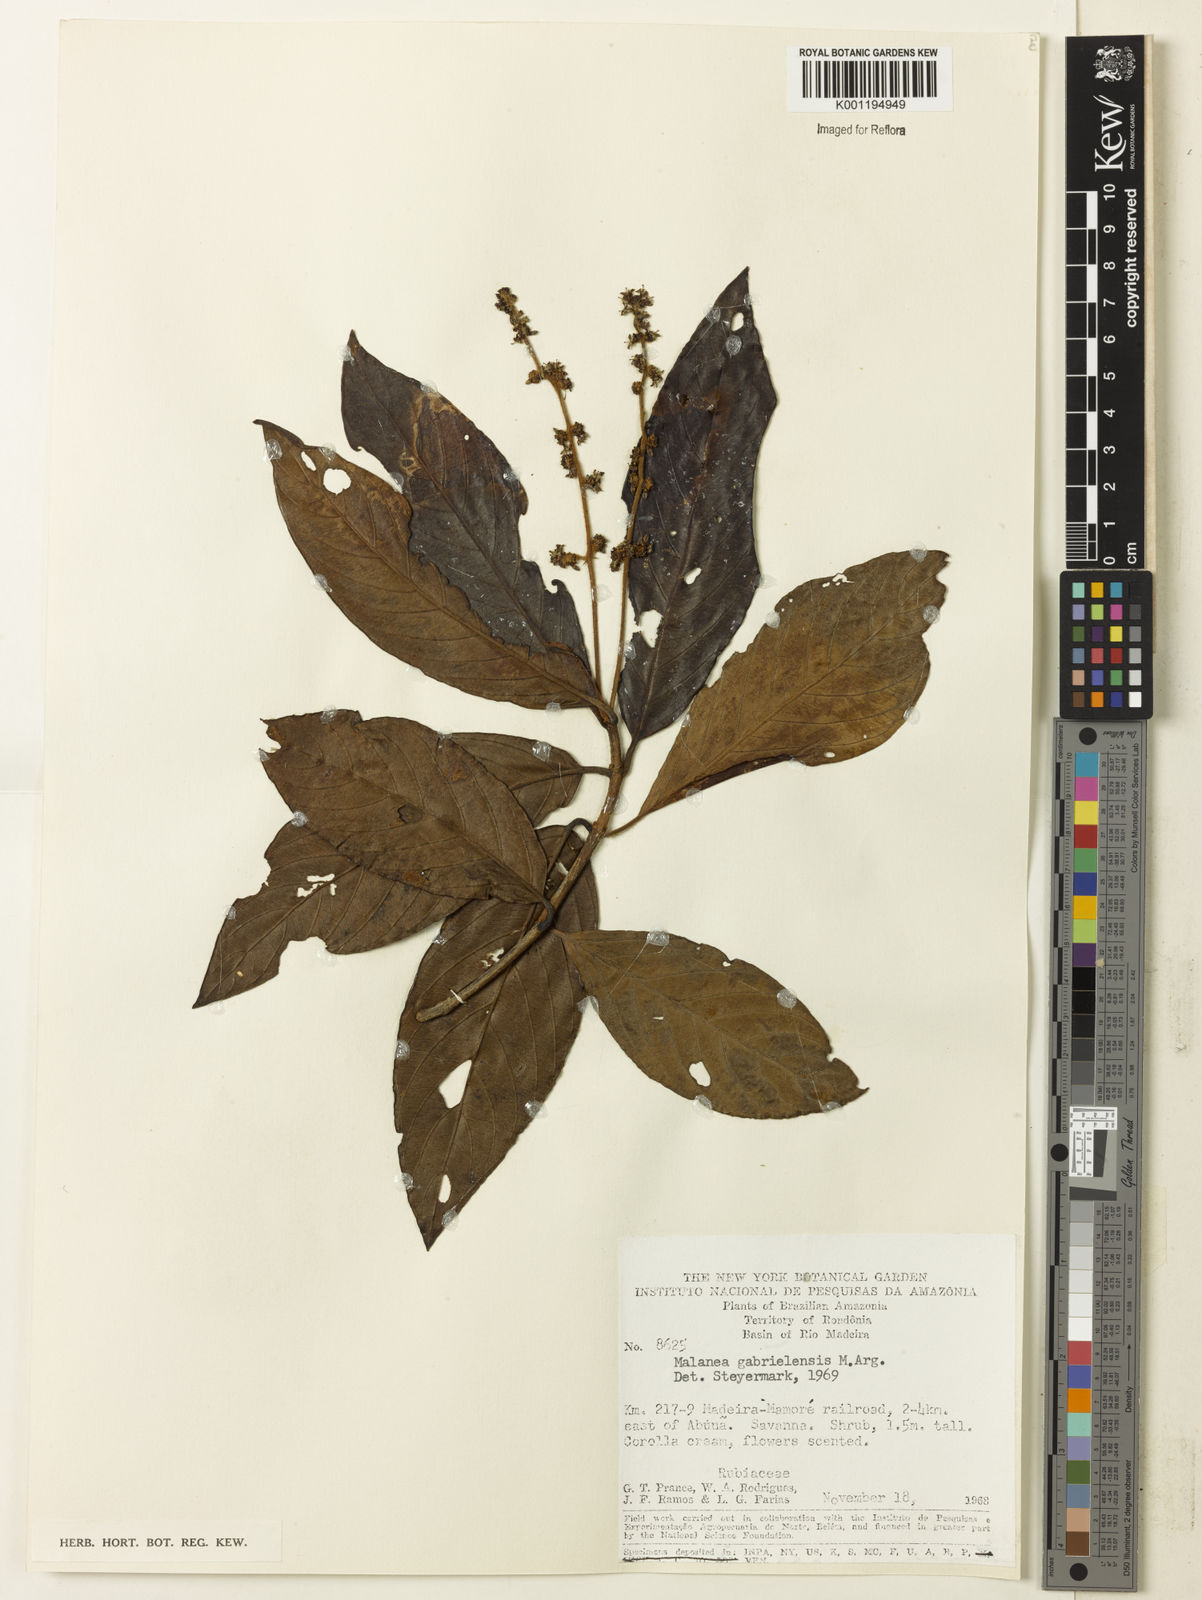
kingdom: Plantae
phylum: Tracheophyta
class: Magnoliopsida
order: Gentianales
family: Rubiaceae
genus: Malanea
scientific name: Malanea
